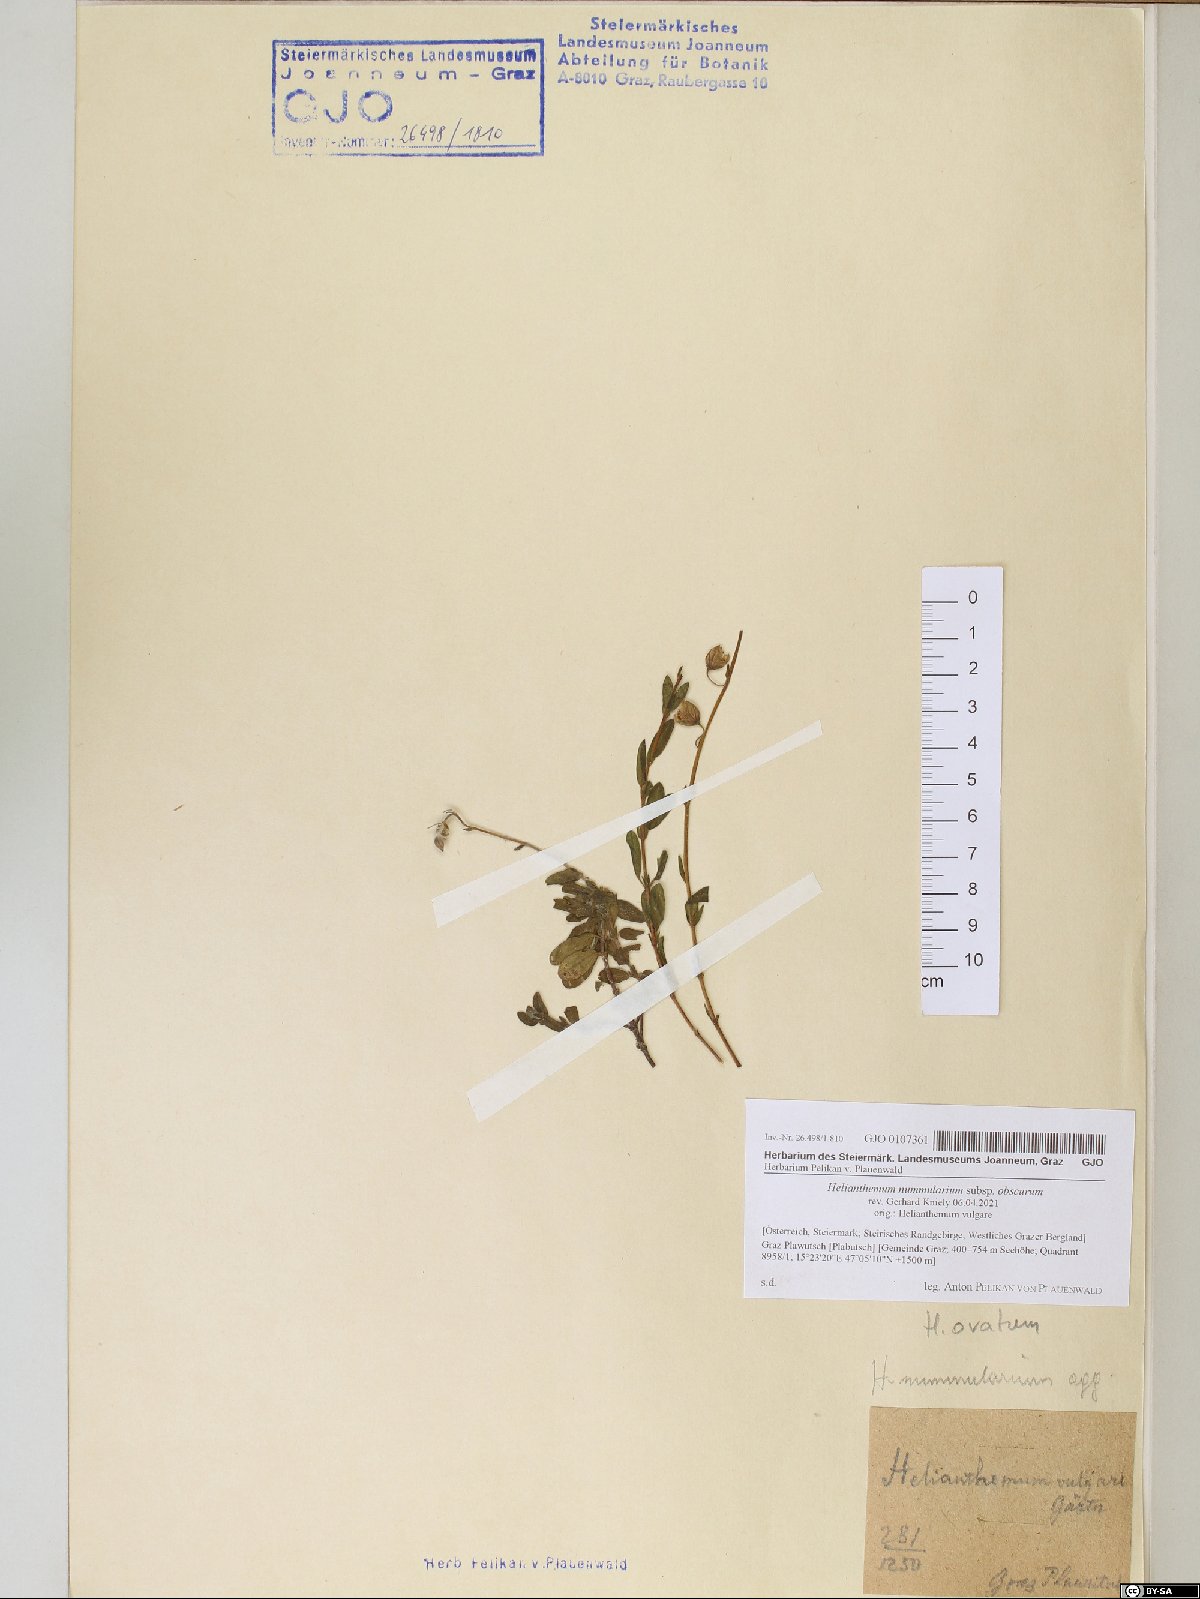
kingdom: Plantae
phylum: Tracheophyta
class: Magnoliopsida
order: Malvales
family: Cistaceae
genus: Helianthemum
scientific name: Helianthemum nummularium
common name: Common rock-rose
